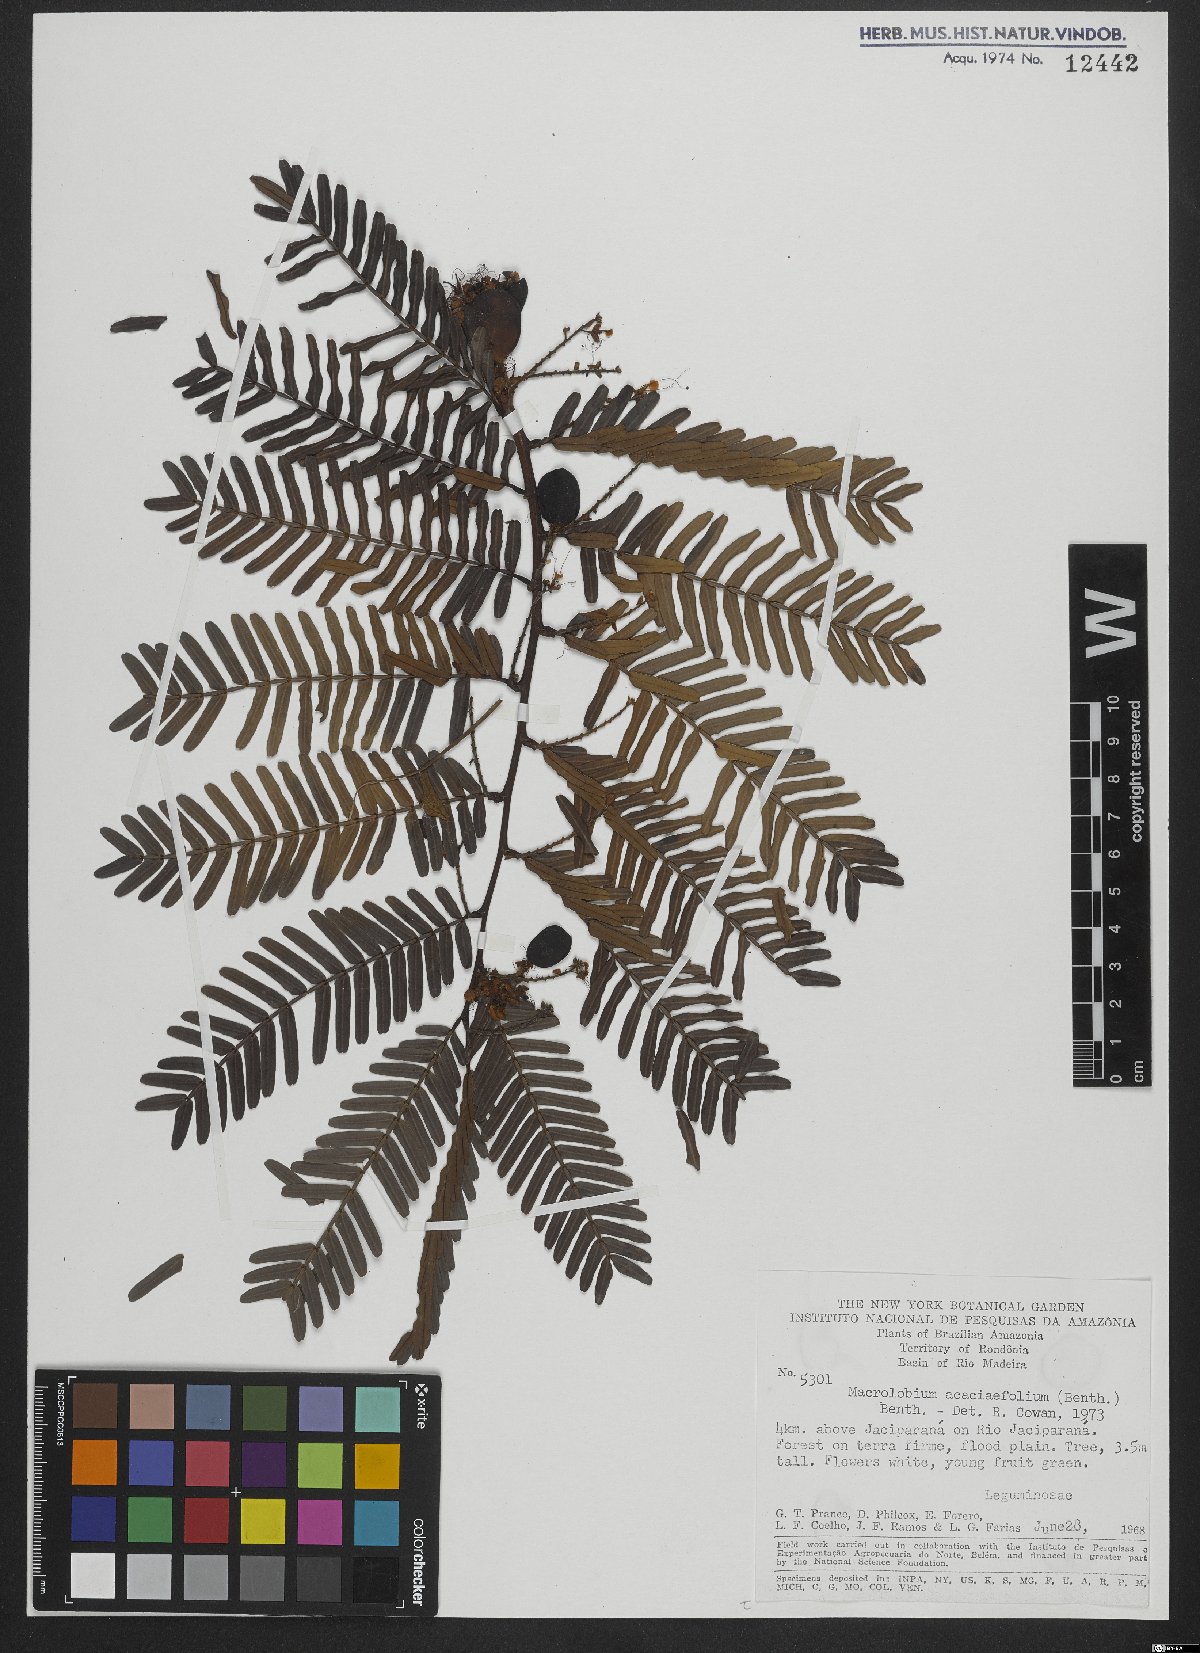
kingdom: Plantae
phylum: Tracheophyta
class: Magnoliopsida
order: Fabales
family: Fabaceae
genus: Macrolobium
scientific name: Macrolobium acaciifolium
